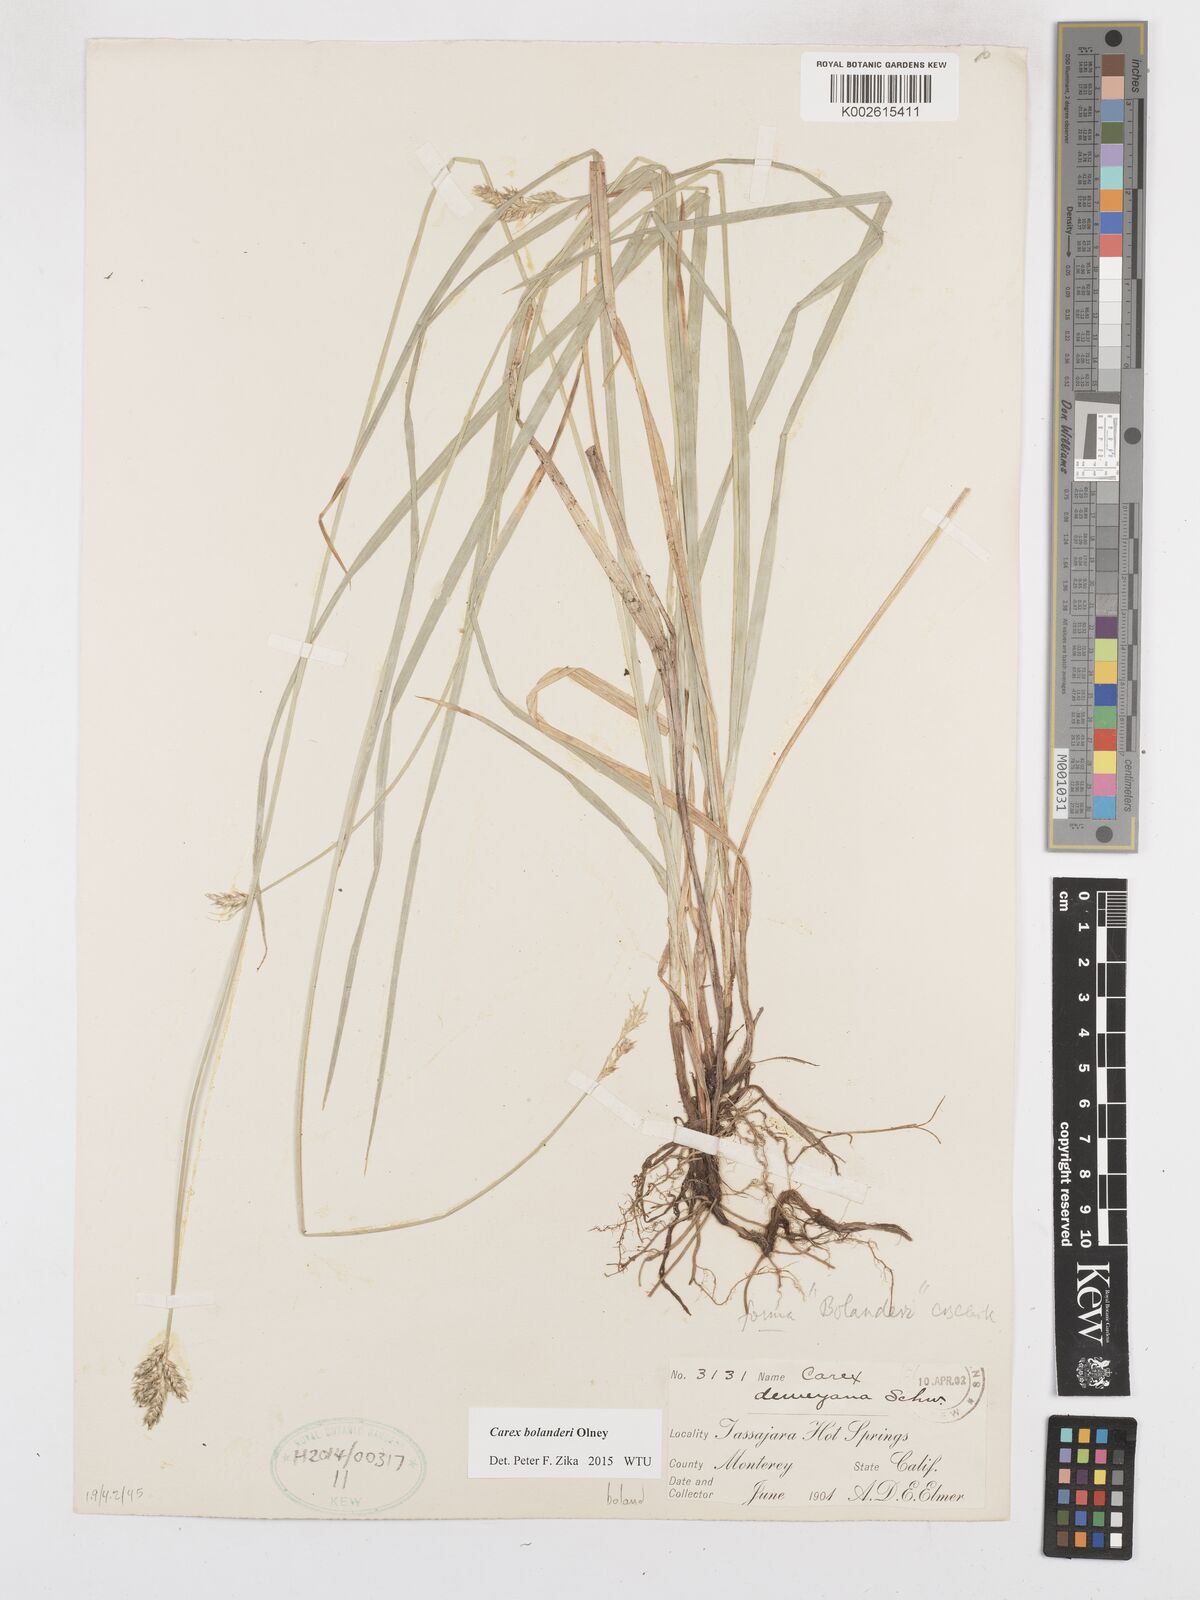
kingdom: Plantae
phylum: Tracheophyta
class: Liliopsida
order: Poales
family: Cyperaceae
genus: Carex
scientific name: Carex bolanderi
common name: Bolander's sedge
